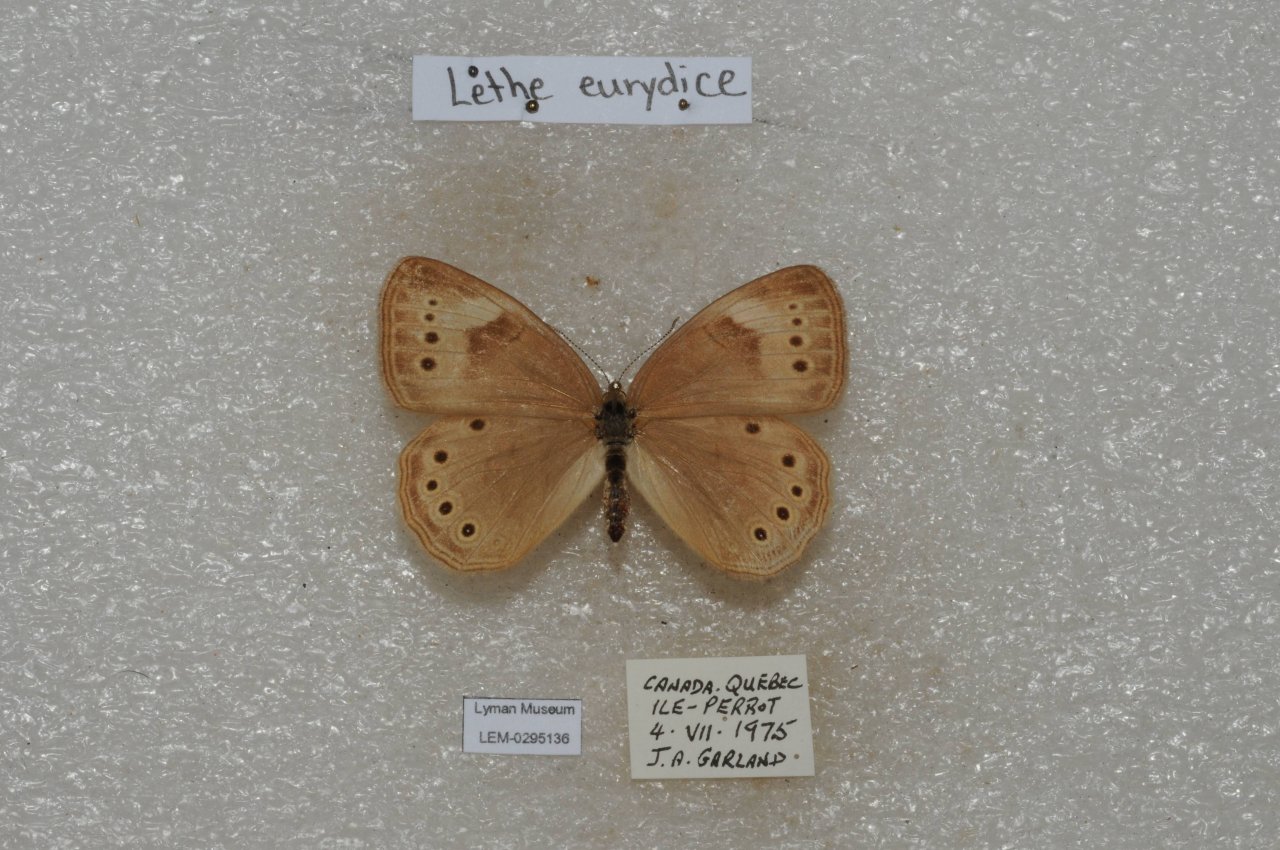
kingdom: Animalia
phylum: Arthropoda
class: Insecta
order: Lepidoptera
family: Nymphalidae
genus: Lethe
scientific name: Lethe eurydice
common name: Eyed Brown
